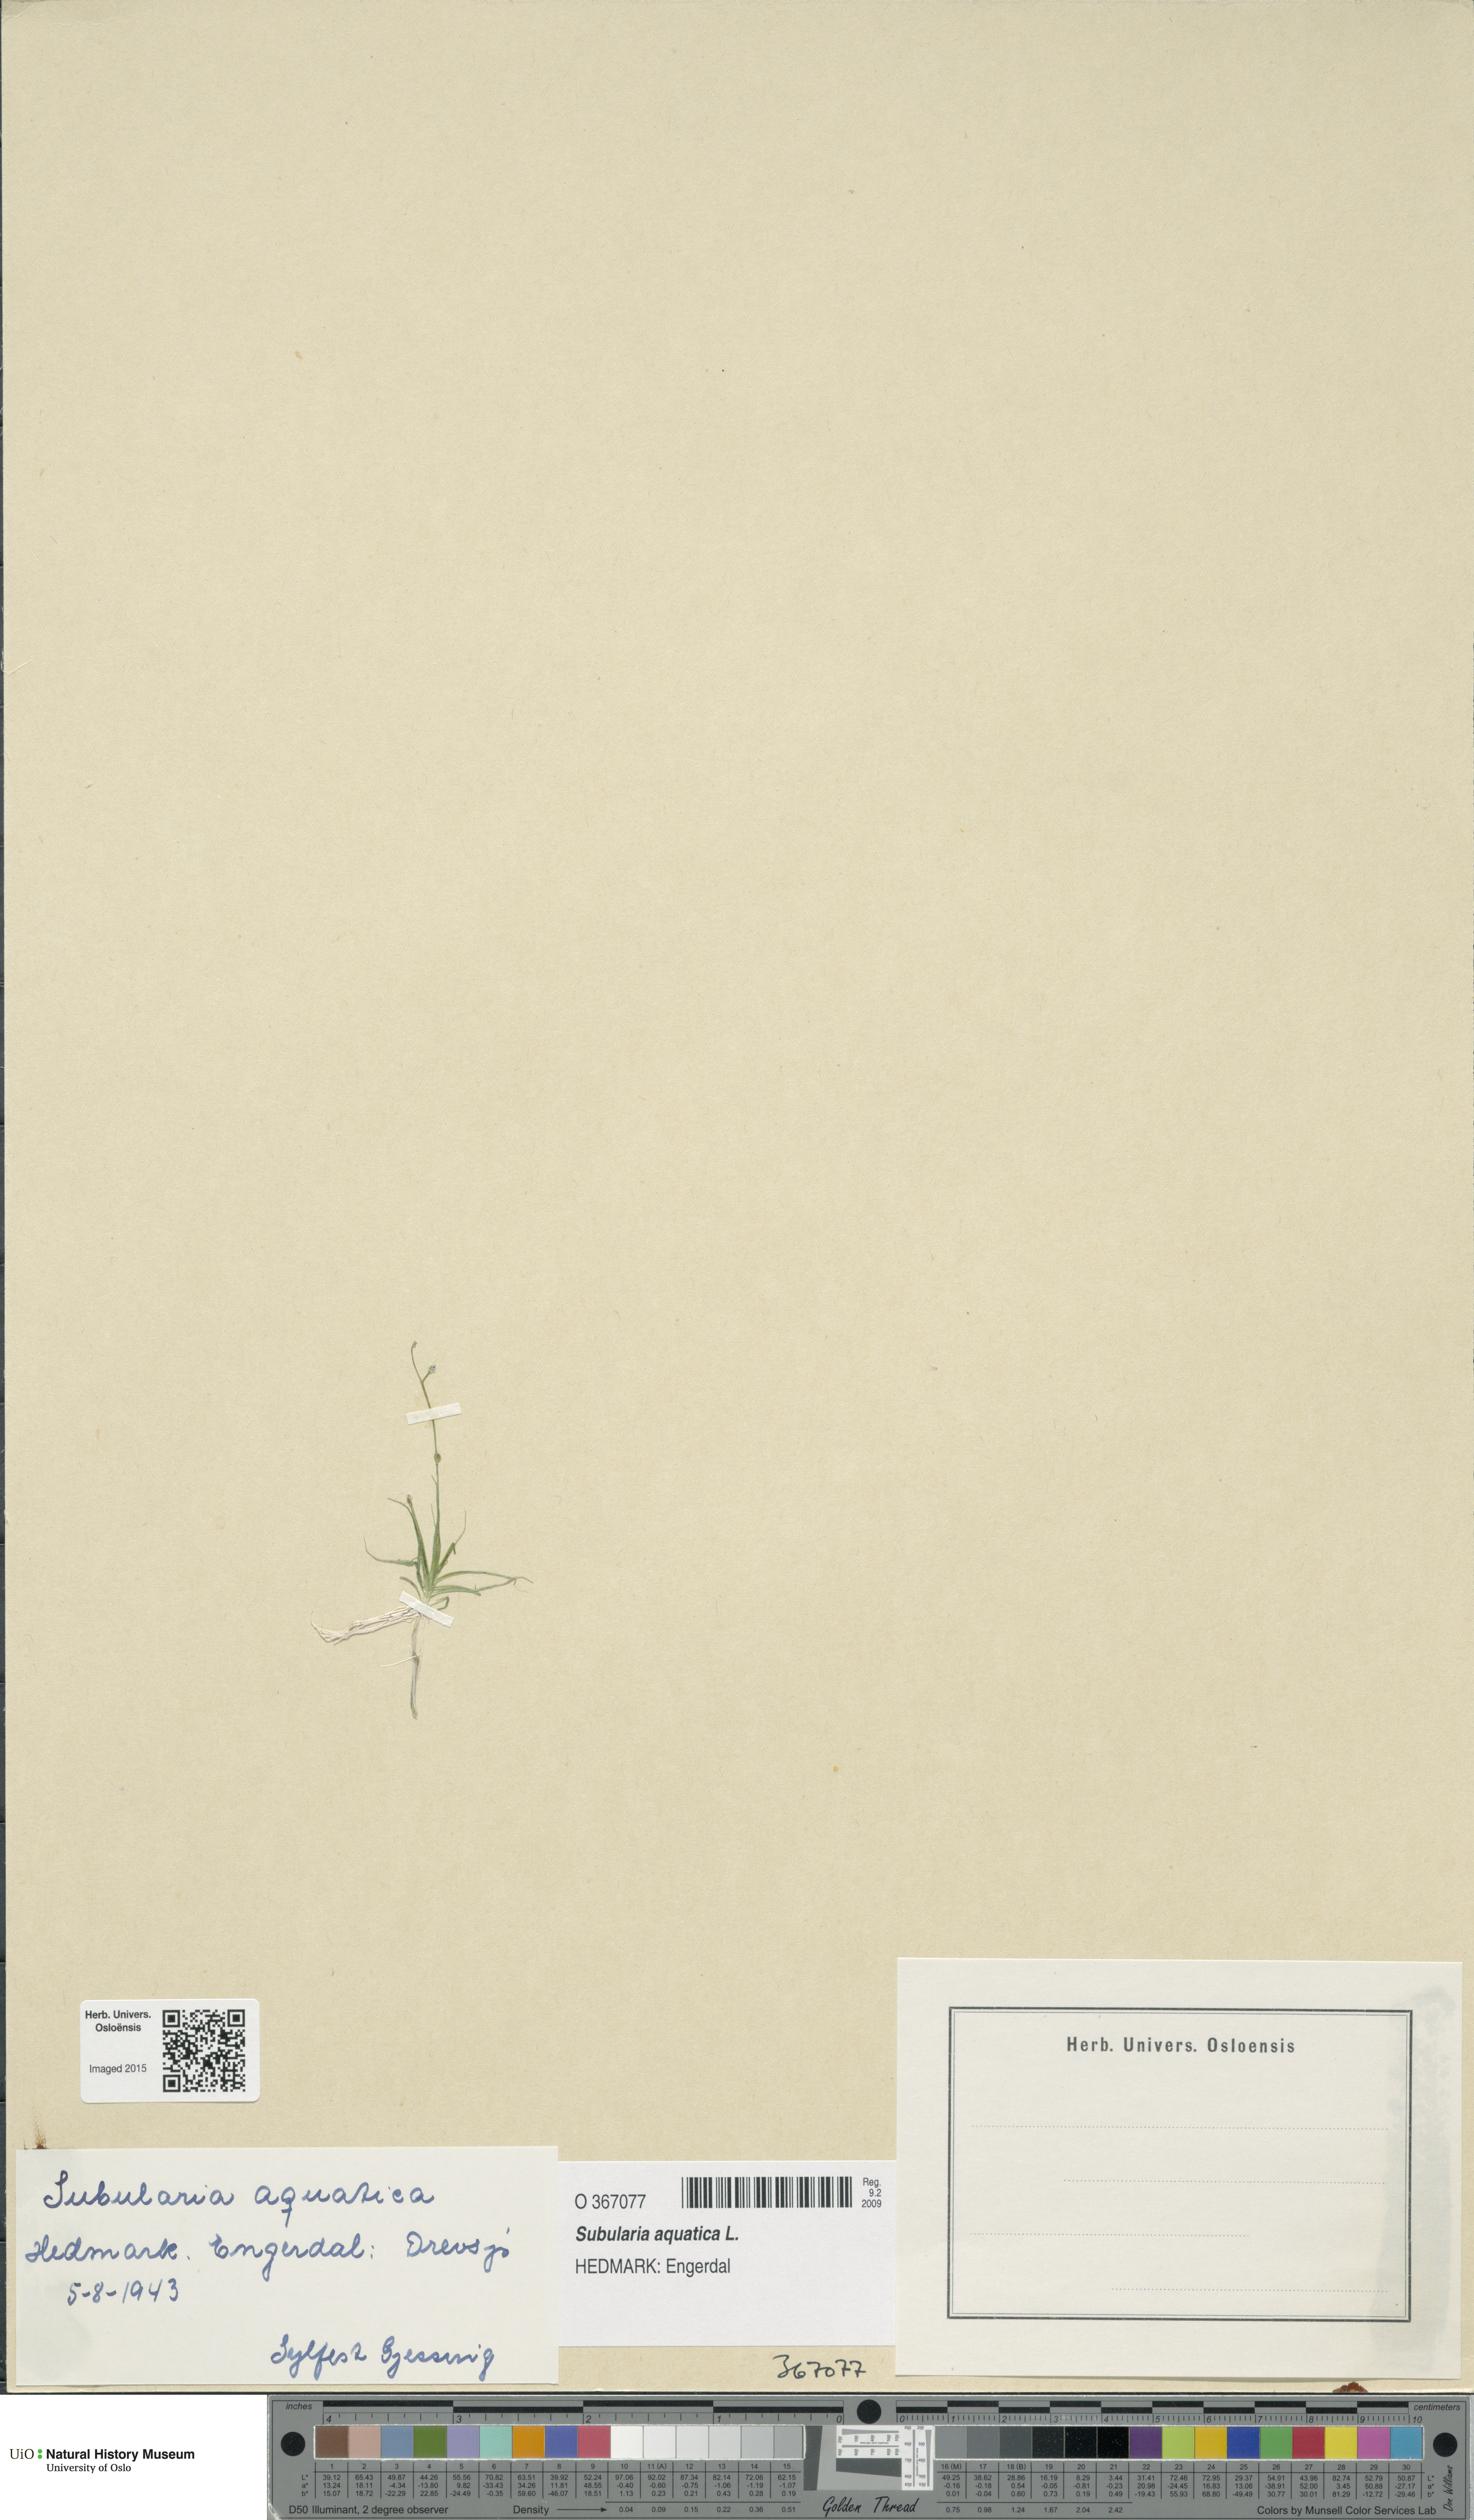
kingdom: Plantae
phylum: Tracheophyta
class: Magnoliopsida
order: Brassicales
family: Brassicaceae
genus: Subularia
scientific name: Subularia aquatica
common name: Awlwort
